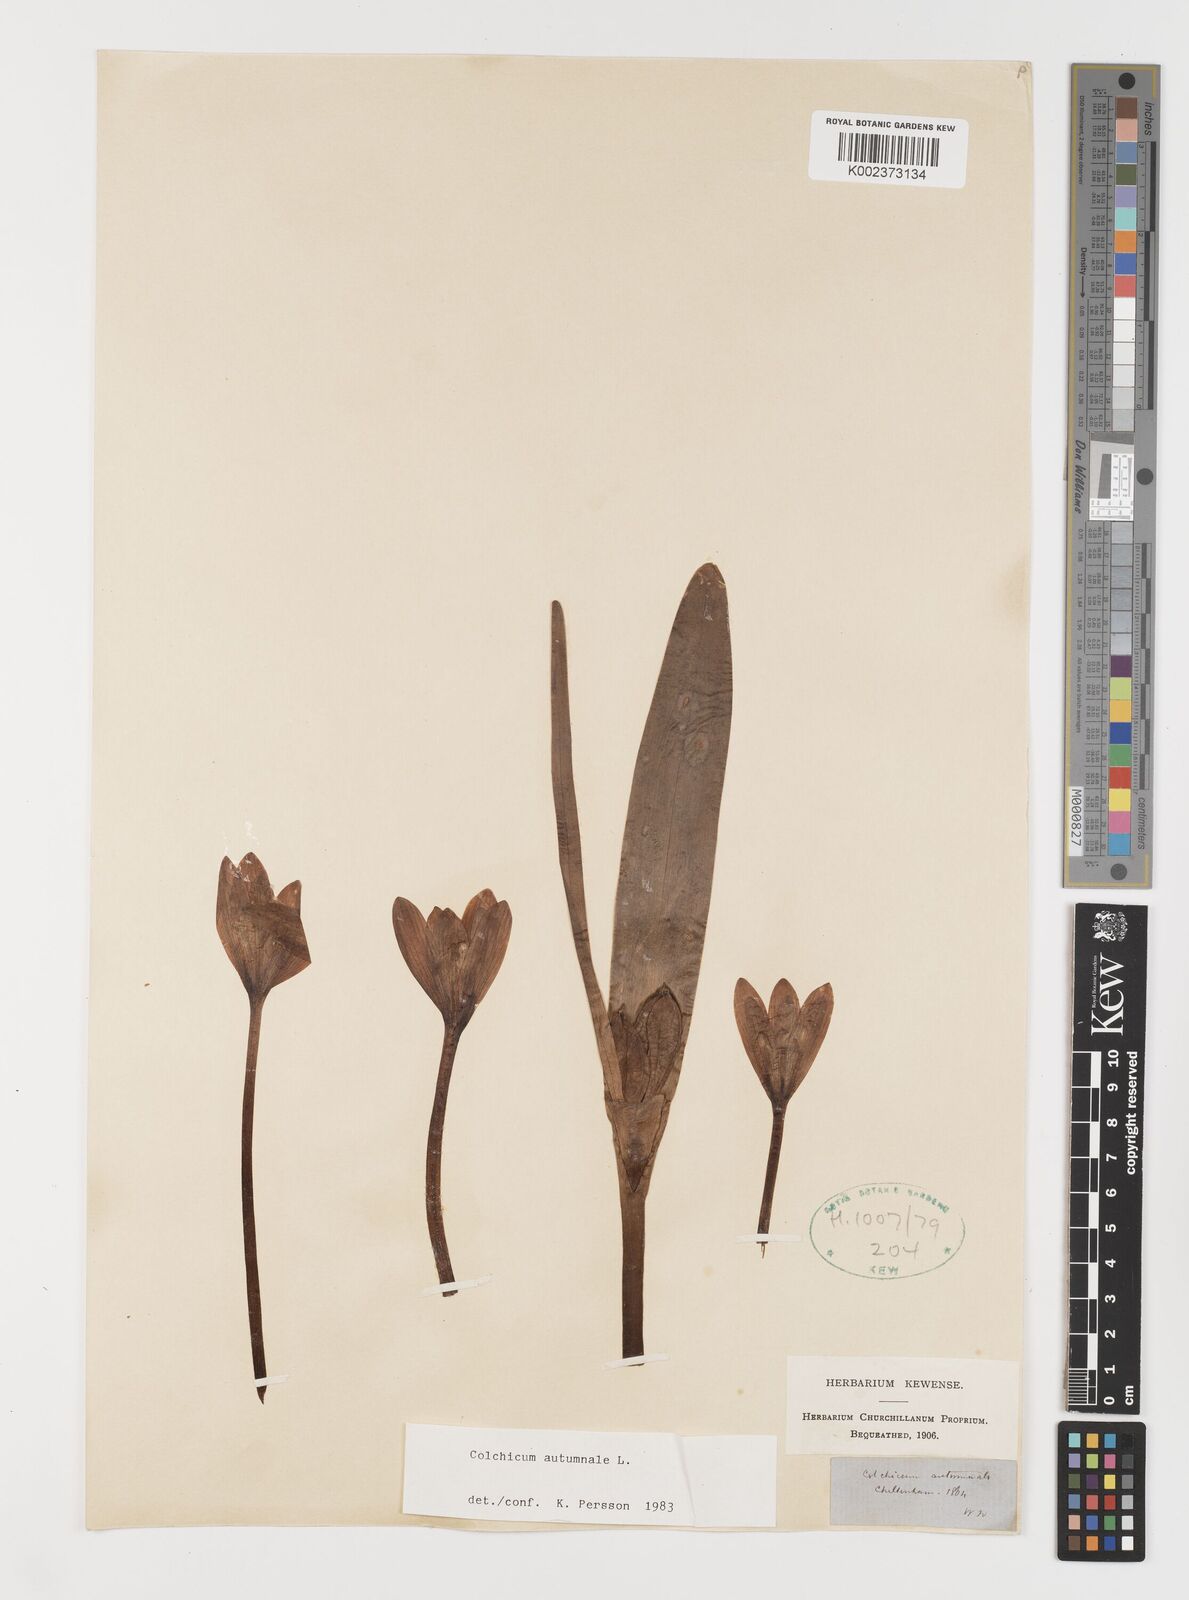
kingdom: Plantae
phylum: Tracheophyta
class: Liliopsida
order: Liliales
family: Colchicaceae
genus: Colchicum
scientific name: Colchicum autumnale
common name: Autumn crocus
